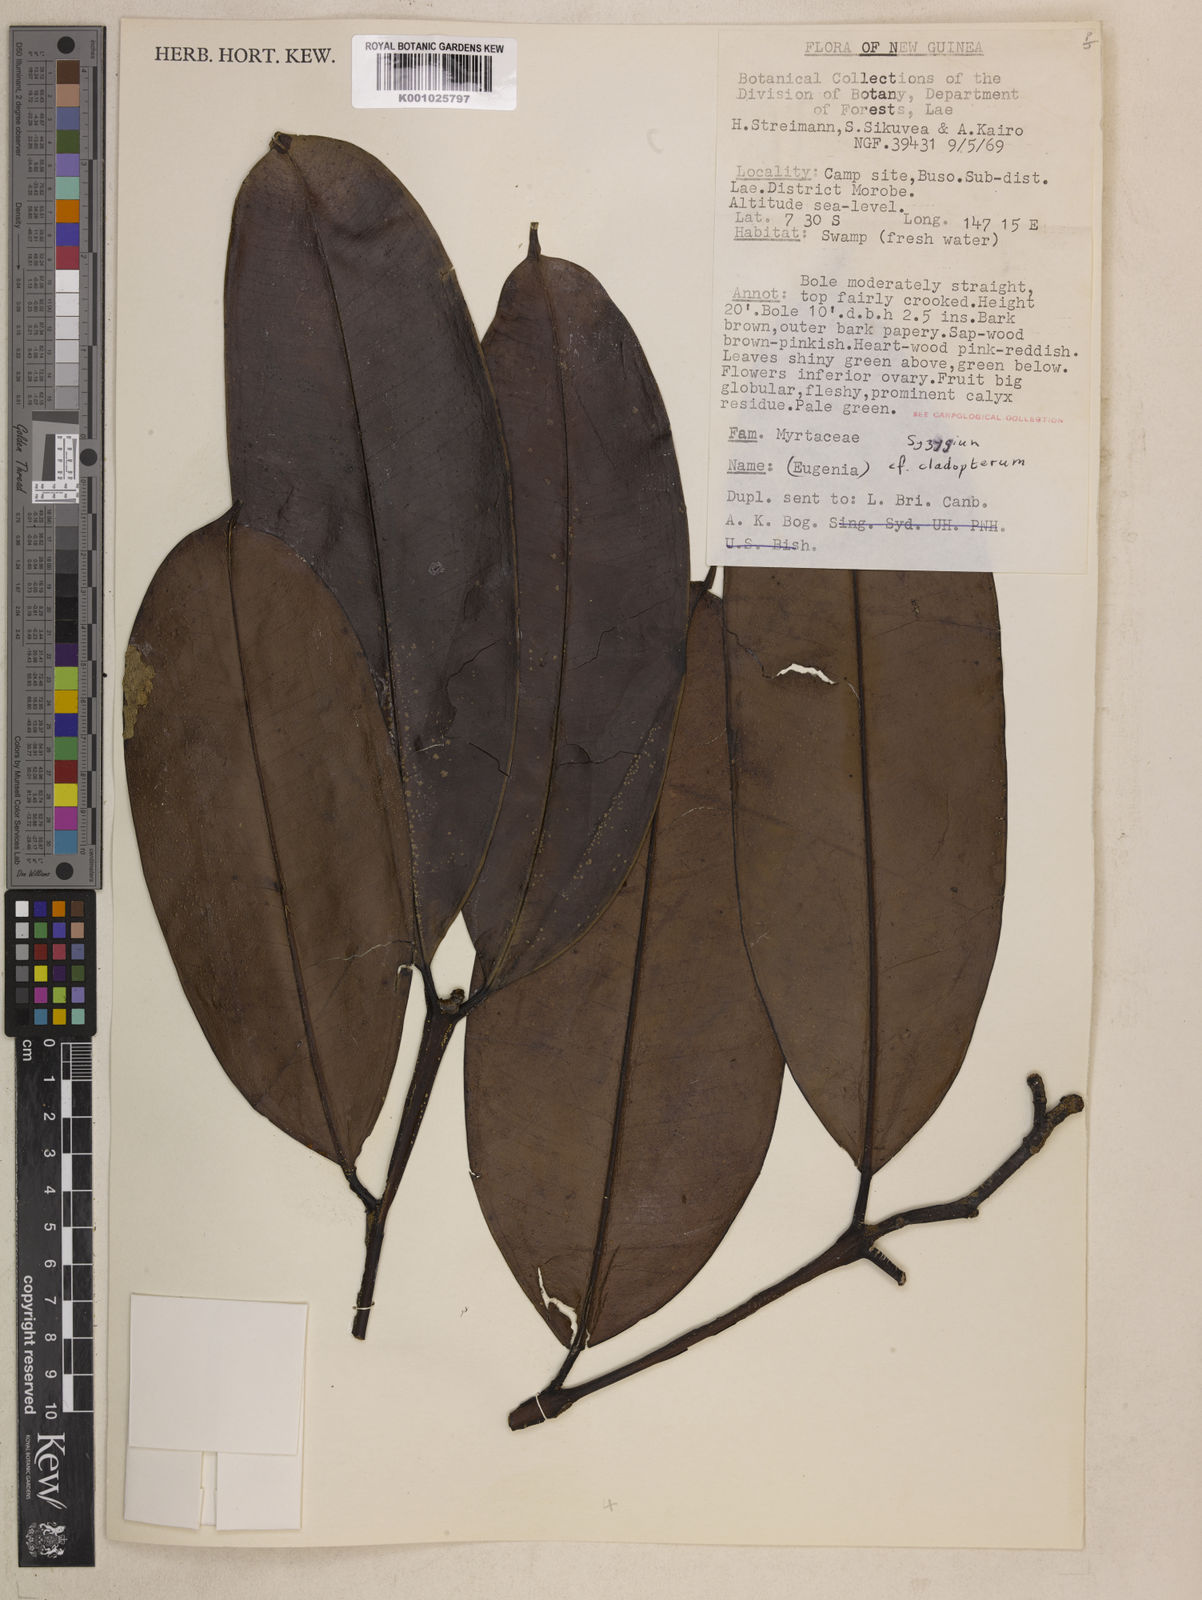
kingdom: Plantae
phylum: Tracheophyta
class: Magnoliopsida
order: Myrtales
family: Myrtaceae
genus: Syzygium
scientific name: Syzygium cladopterum
